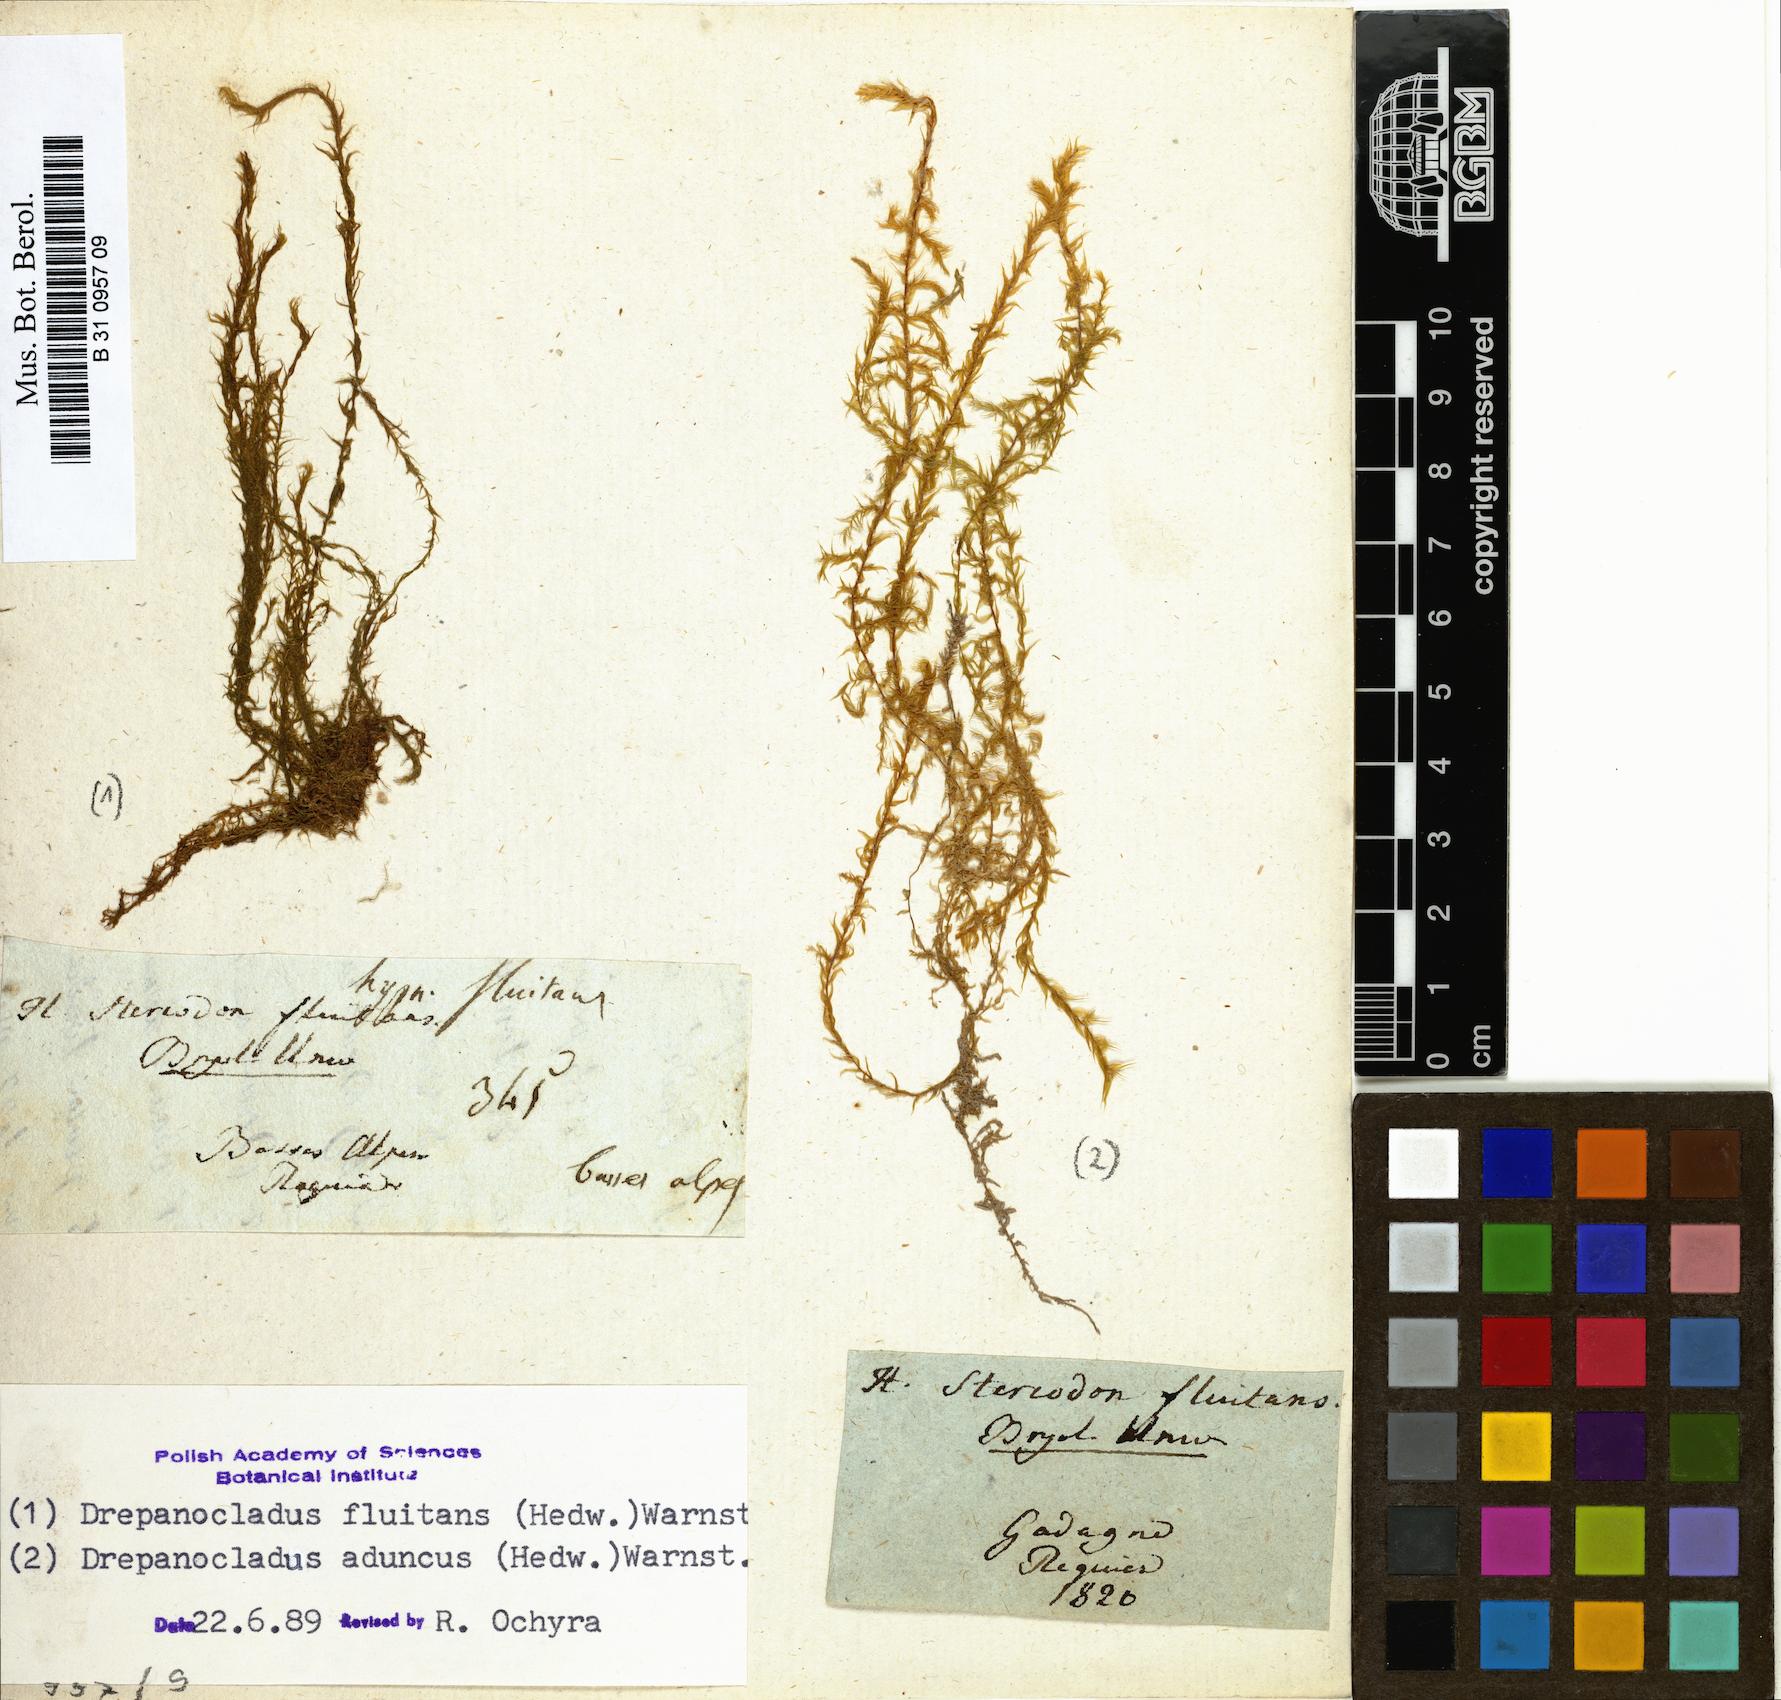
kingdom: Plantae
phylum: Bryophyta
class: Bryopsida
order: Hypnales
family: Calliergonaceae
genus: Warnstorfia
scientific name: Warnstorfia fluitans
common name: Floating hook moss
